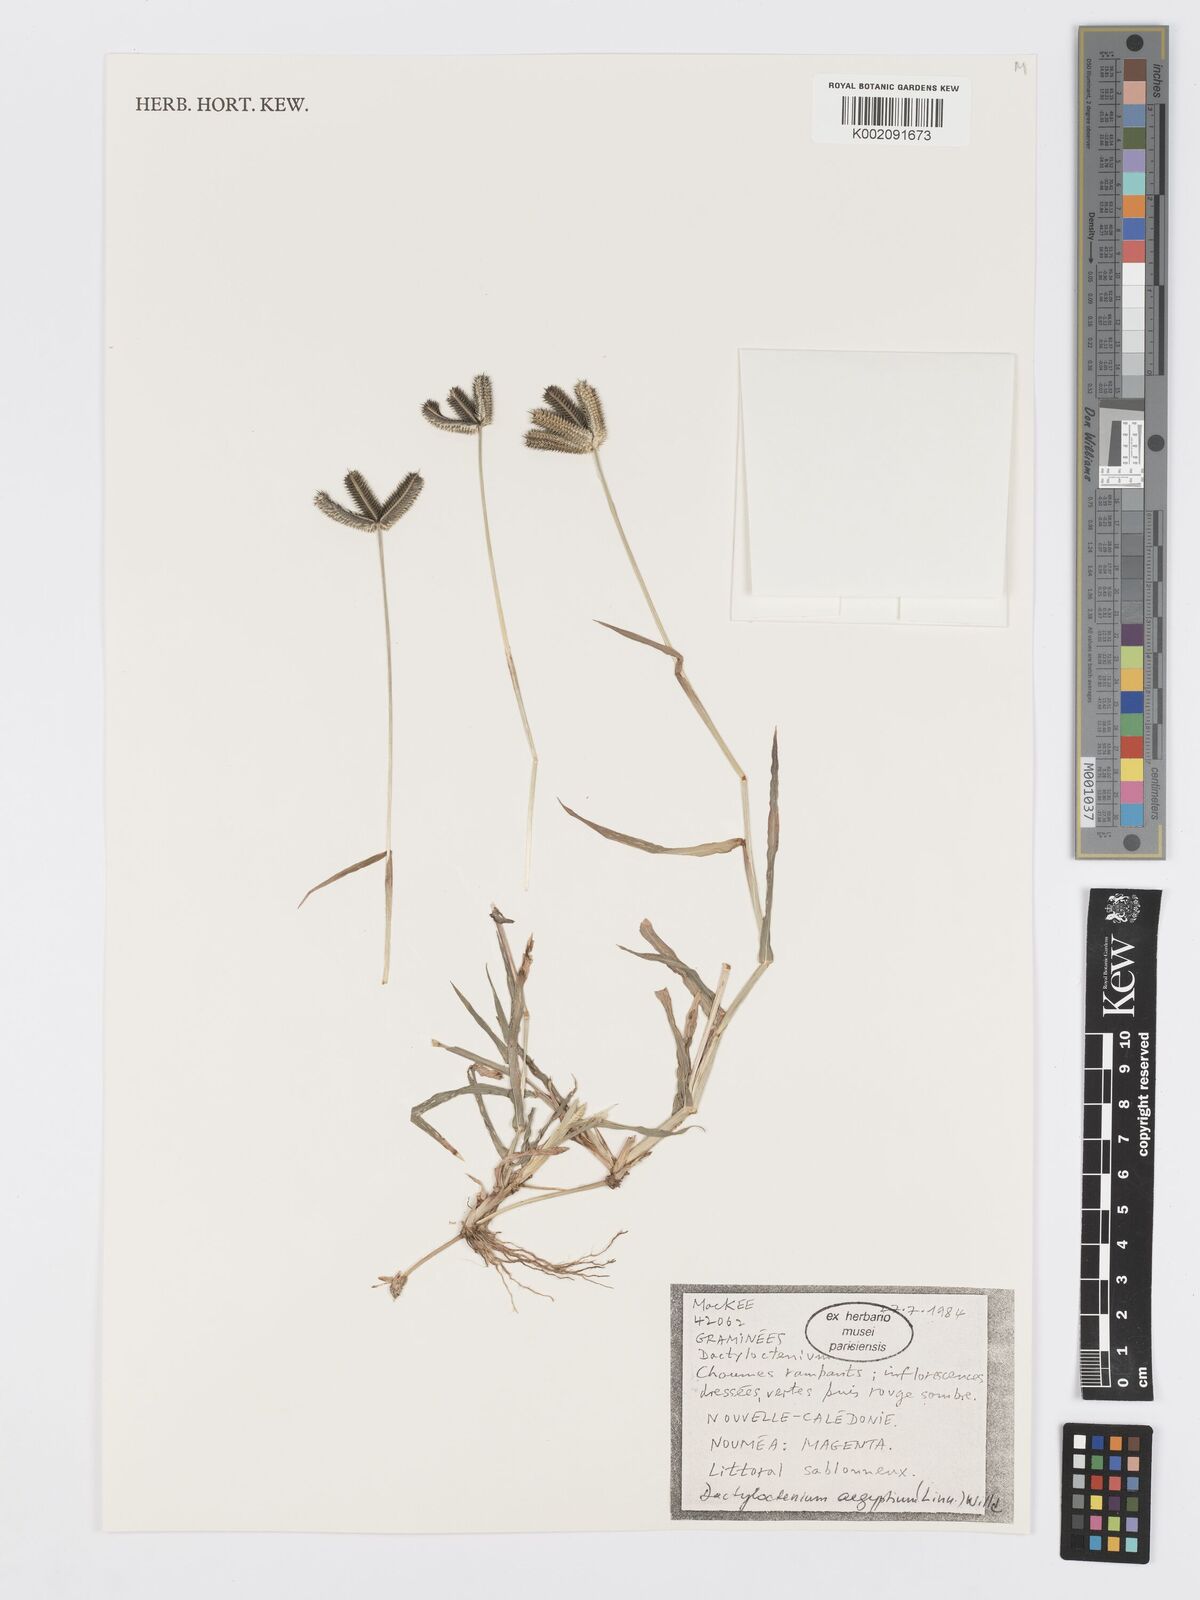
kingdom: Plantae
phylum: Tracheophyta
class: Liliopsida
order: Poales
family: Poaceae
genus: Dactyloctenium
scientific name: Dactyloctenium aegyptium
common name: Egyptian grass
